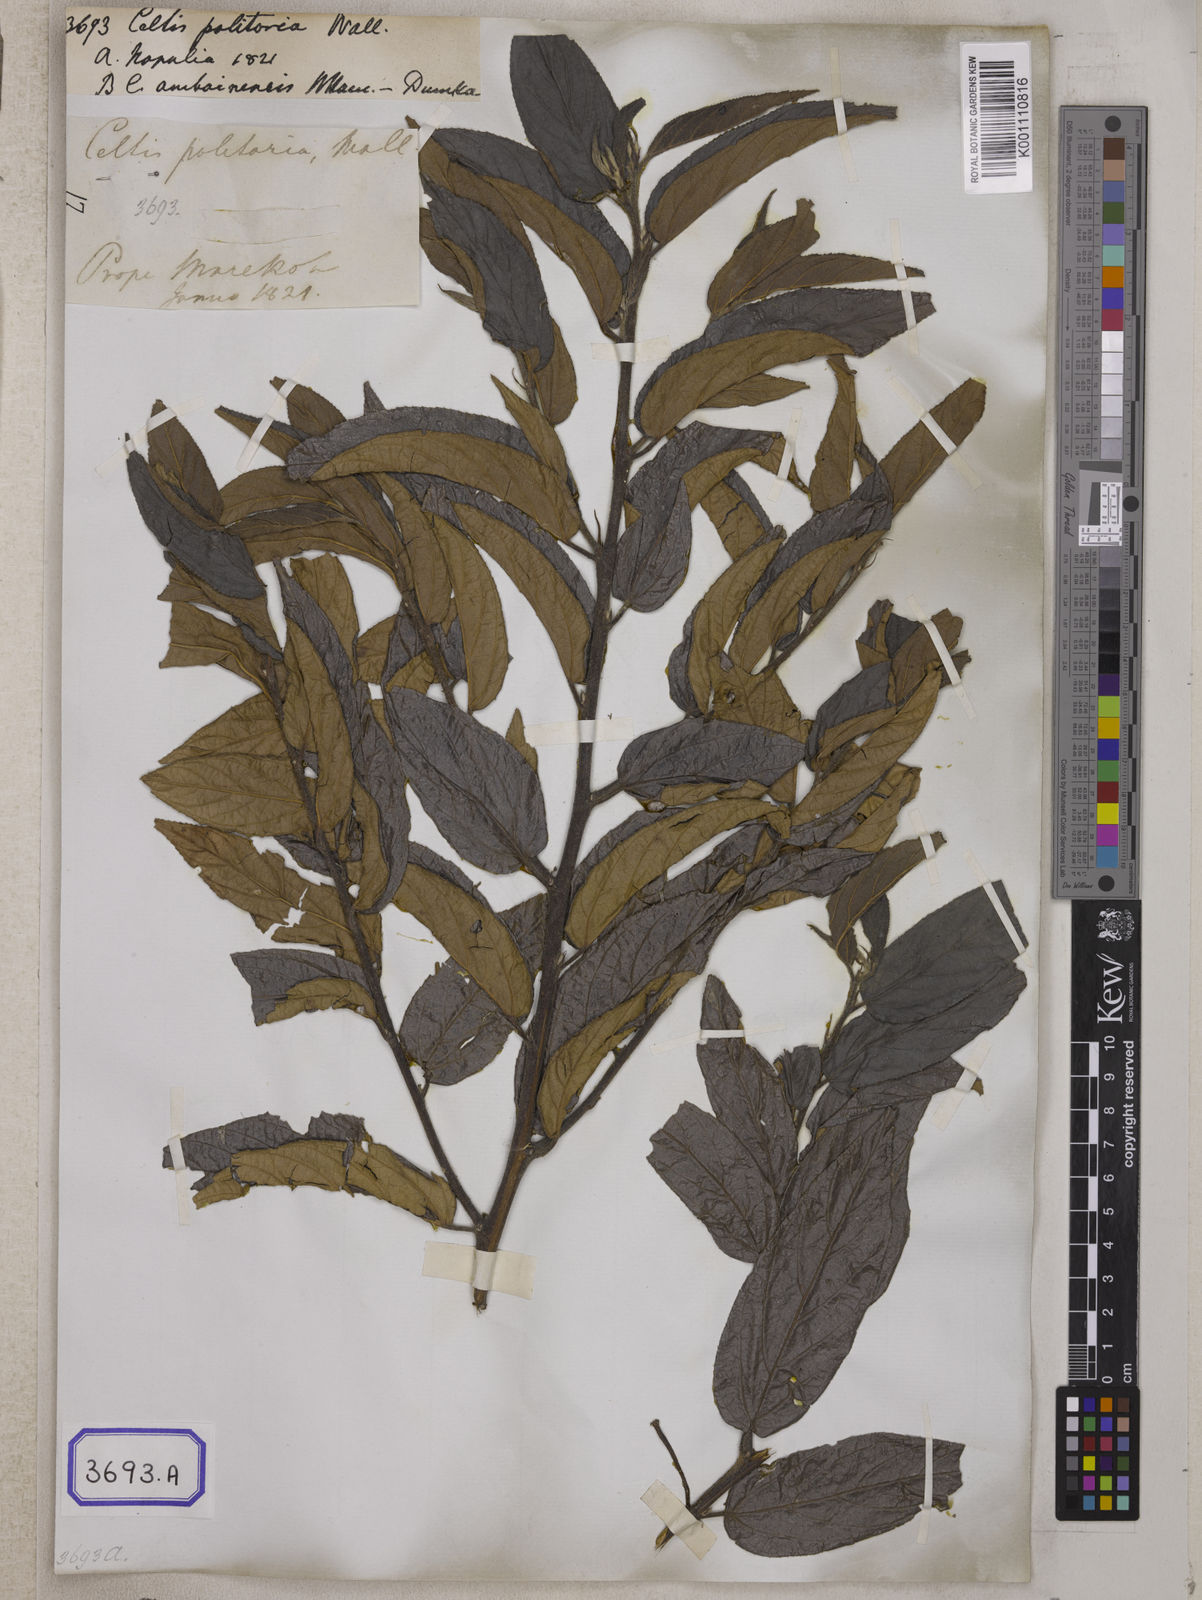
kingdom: Plantae
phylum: Tracheophyta
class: Magnoliopsida
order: Rosales
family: Cannabaceae
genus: Trema
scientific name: Trema politoria
